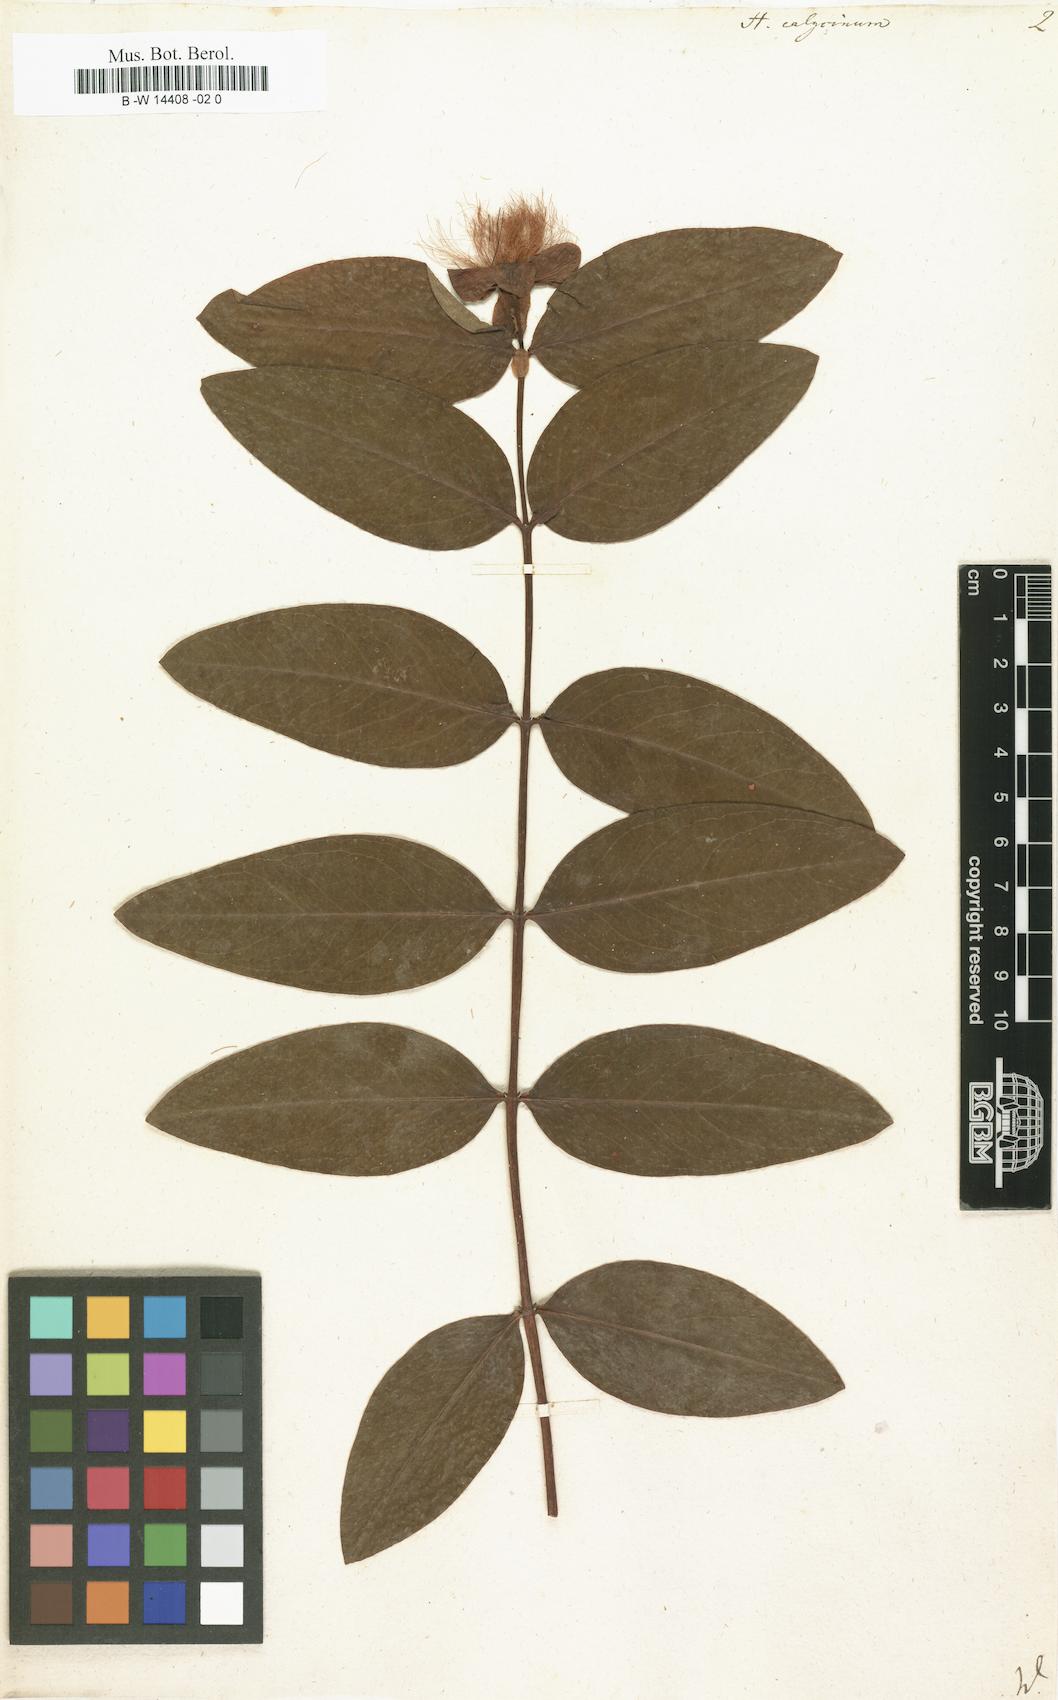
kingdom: Plantae
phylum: Tracheophyta
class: Magnoliopsida
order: Malpighiales
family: Hypericaceae
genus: Hypericum
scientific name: Hypericum calycinum
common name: Rose-of-sharon
